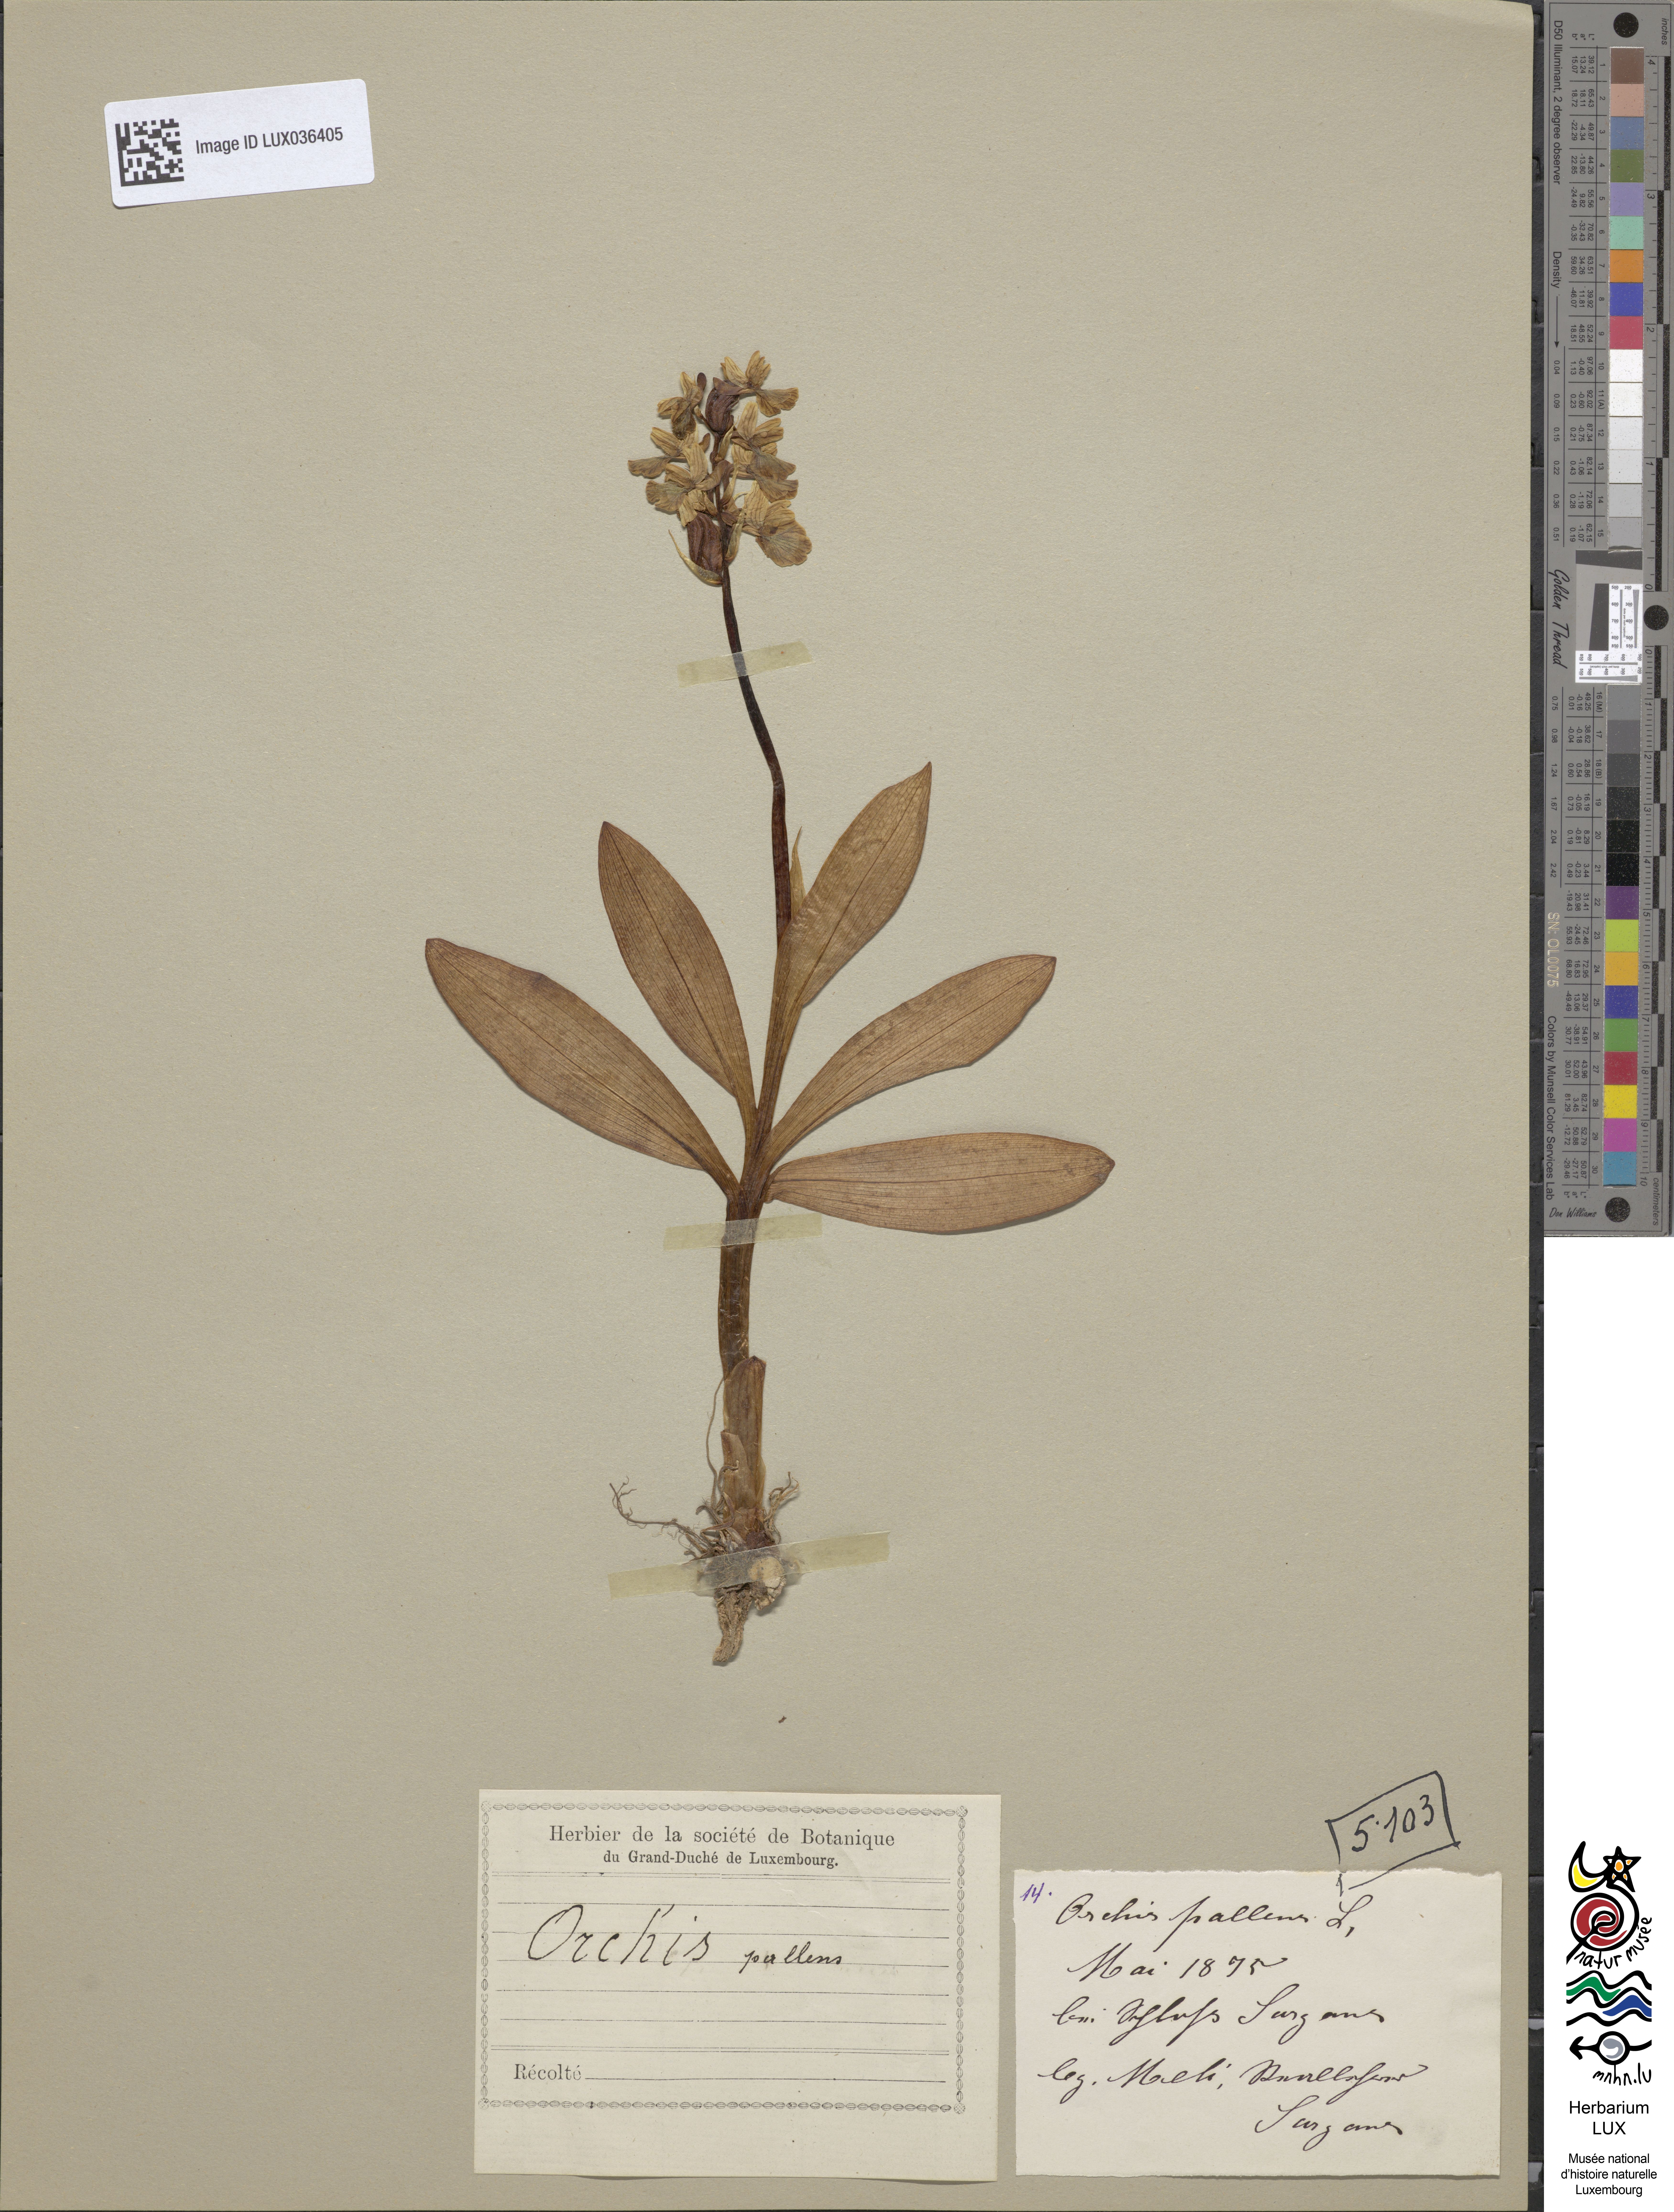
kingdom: Plantae
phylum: Tracheophyta
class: Liliopsida
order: Asparagales
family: Orchidaceae
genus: Orchis
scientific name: Orchis pallens
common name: Pale-flowered orchid
